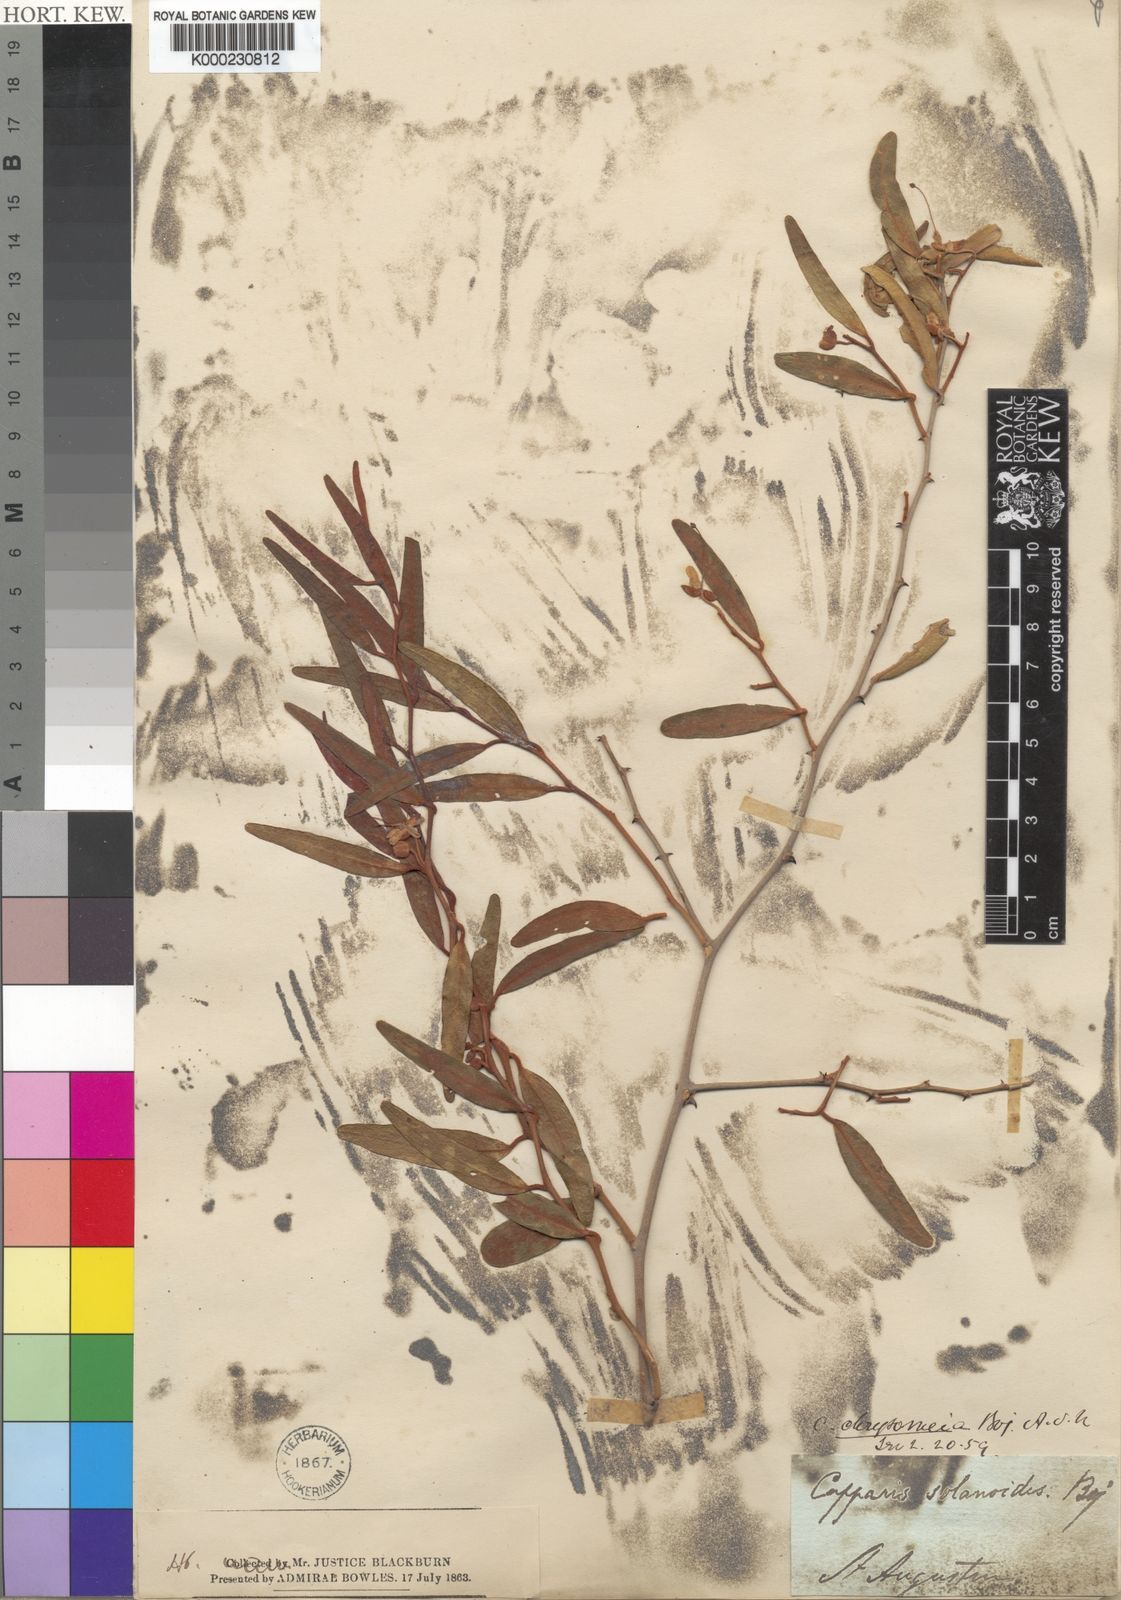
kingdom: Plantae
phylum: Tracheophyta
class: Magnoliopsida
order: Brassicales
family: Capparaceae
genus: Capparis
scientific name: Capparis chrysomeia
